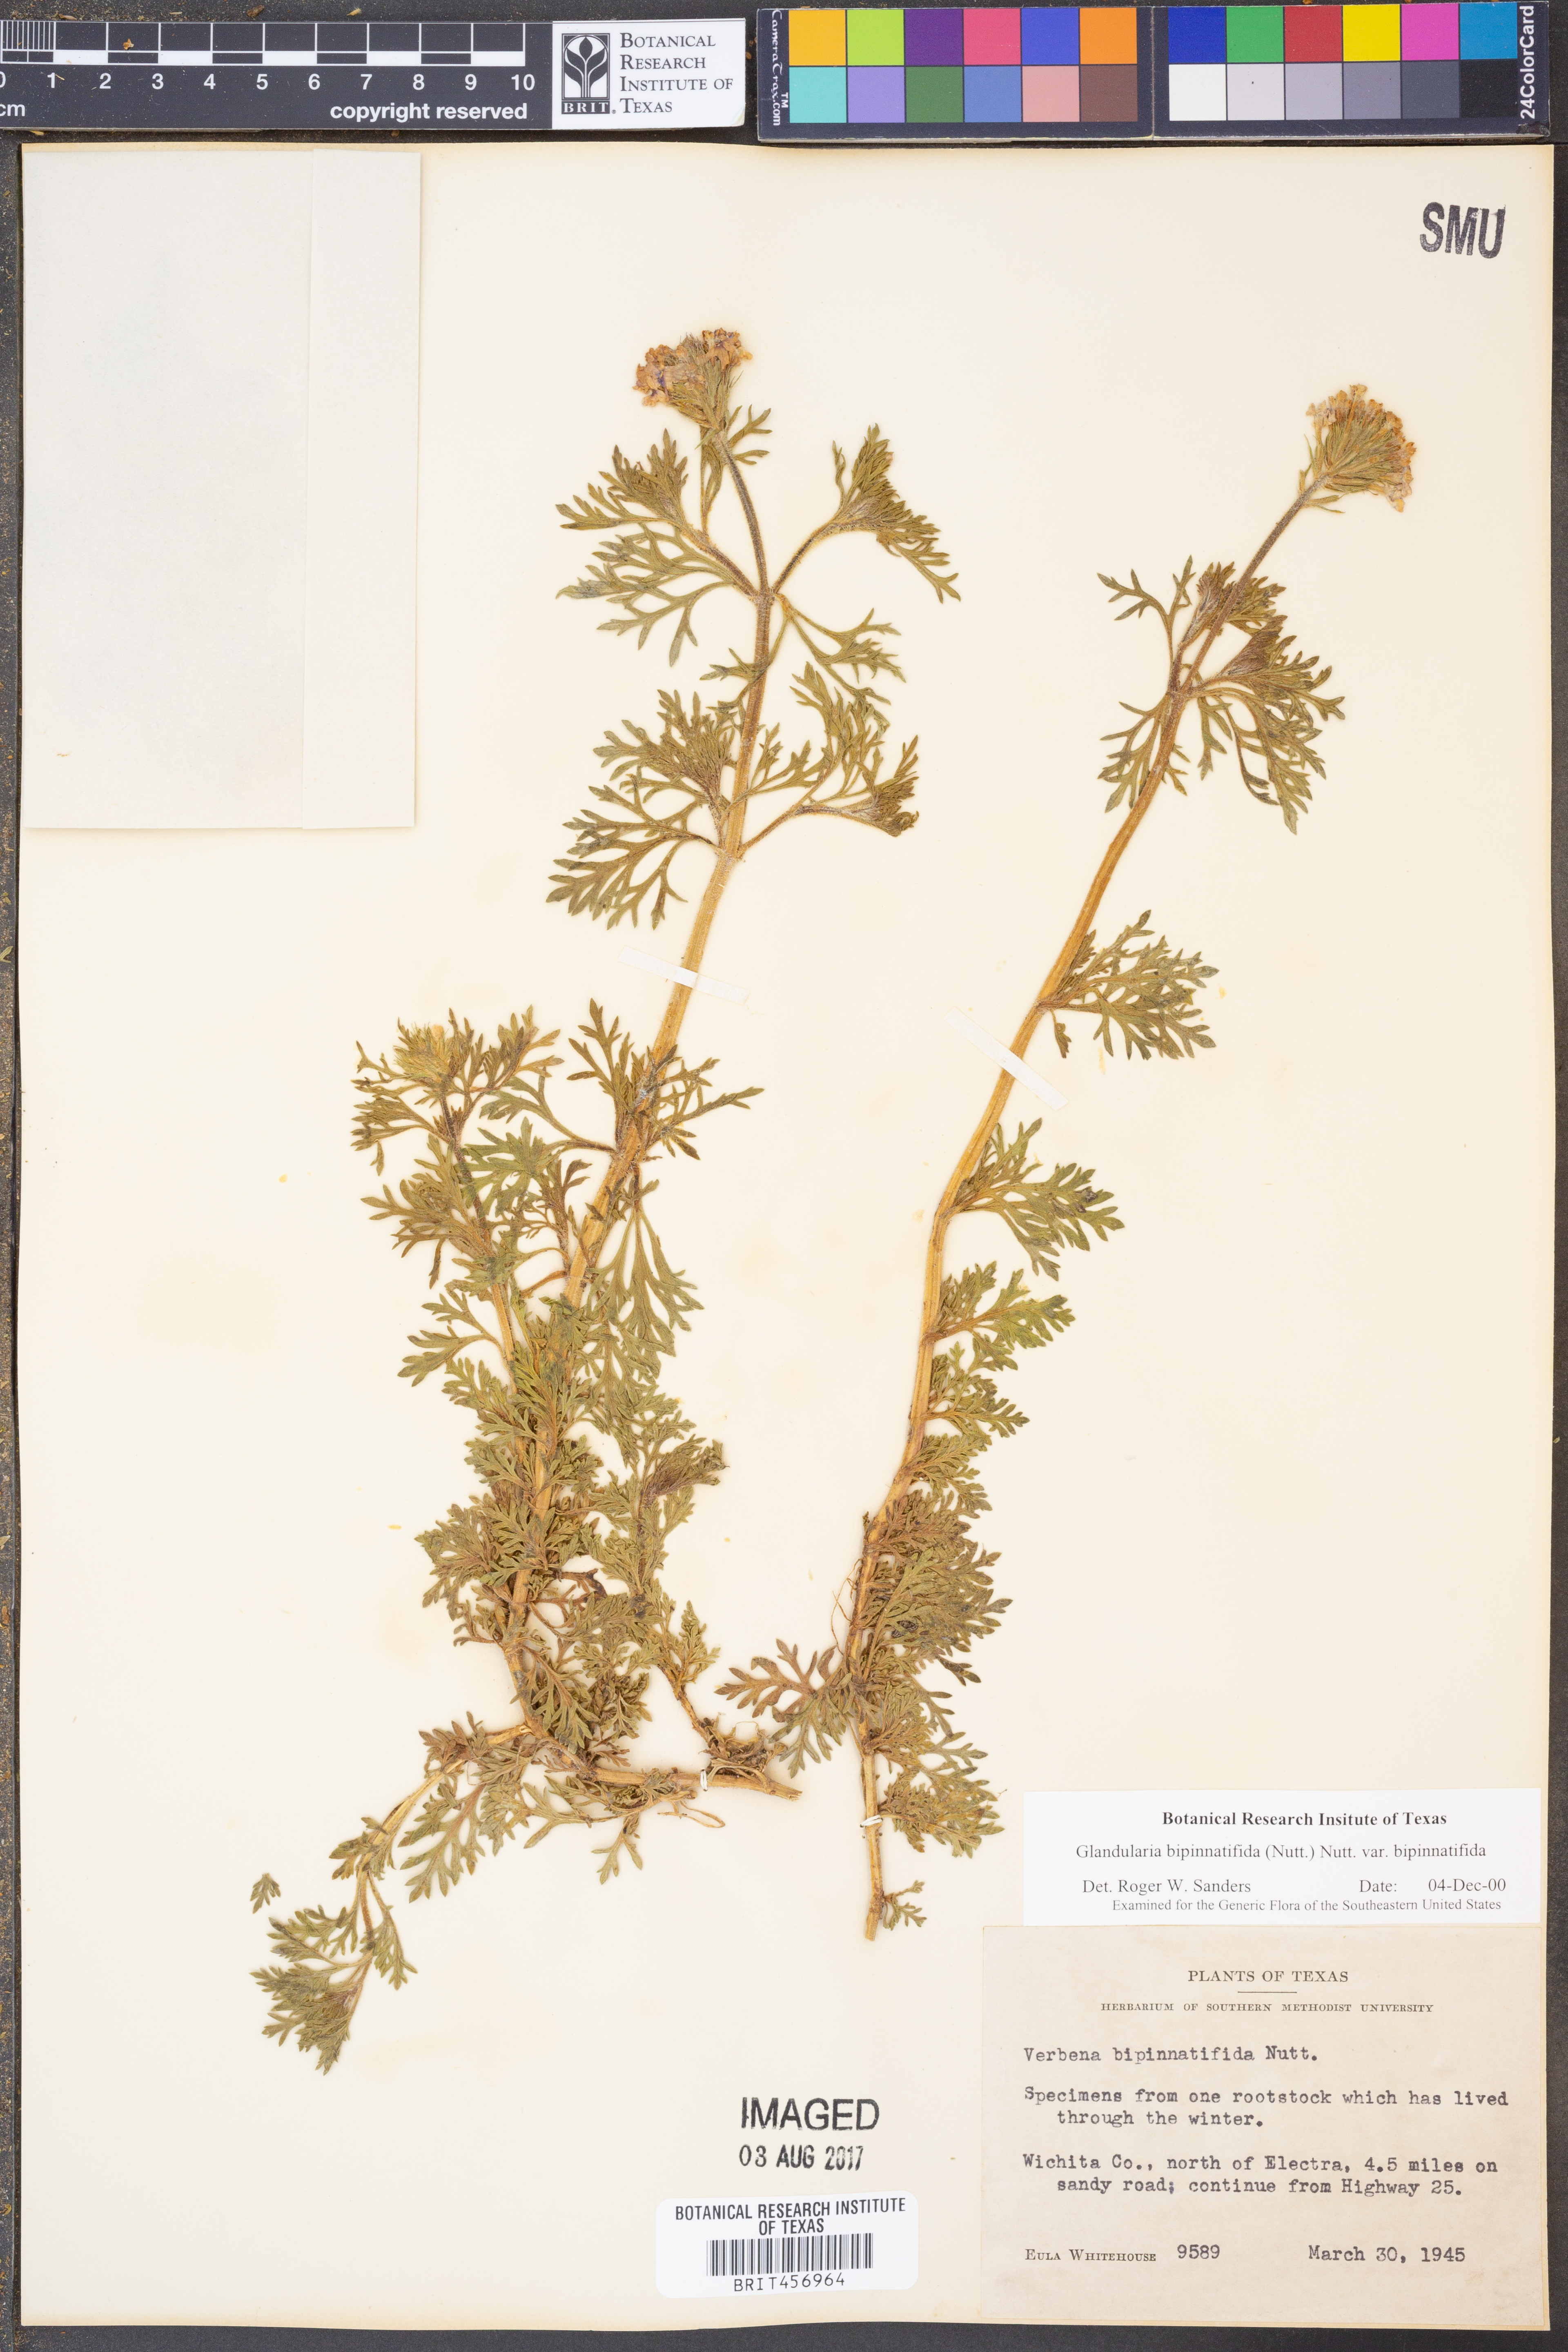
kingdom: Plantae
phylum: Tracheophyta
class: Magnoliopsida
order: Lamiales
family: Verbenaceae
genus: Verbena
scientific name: Verbena bipinnatifida
